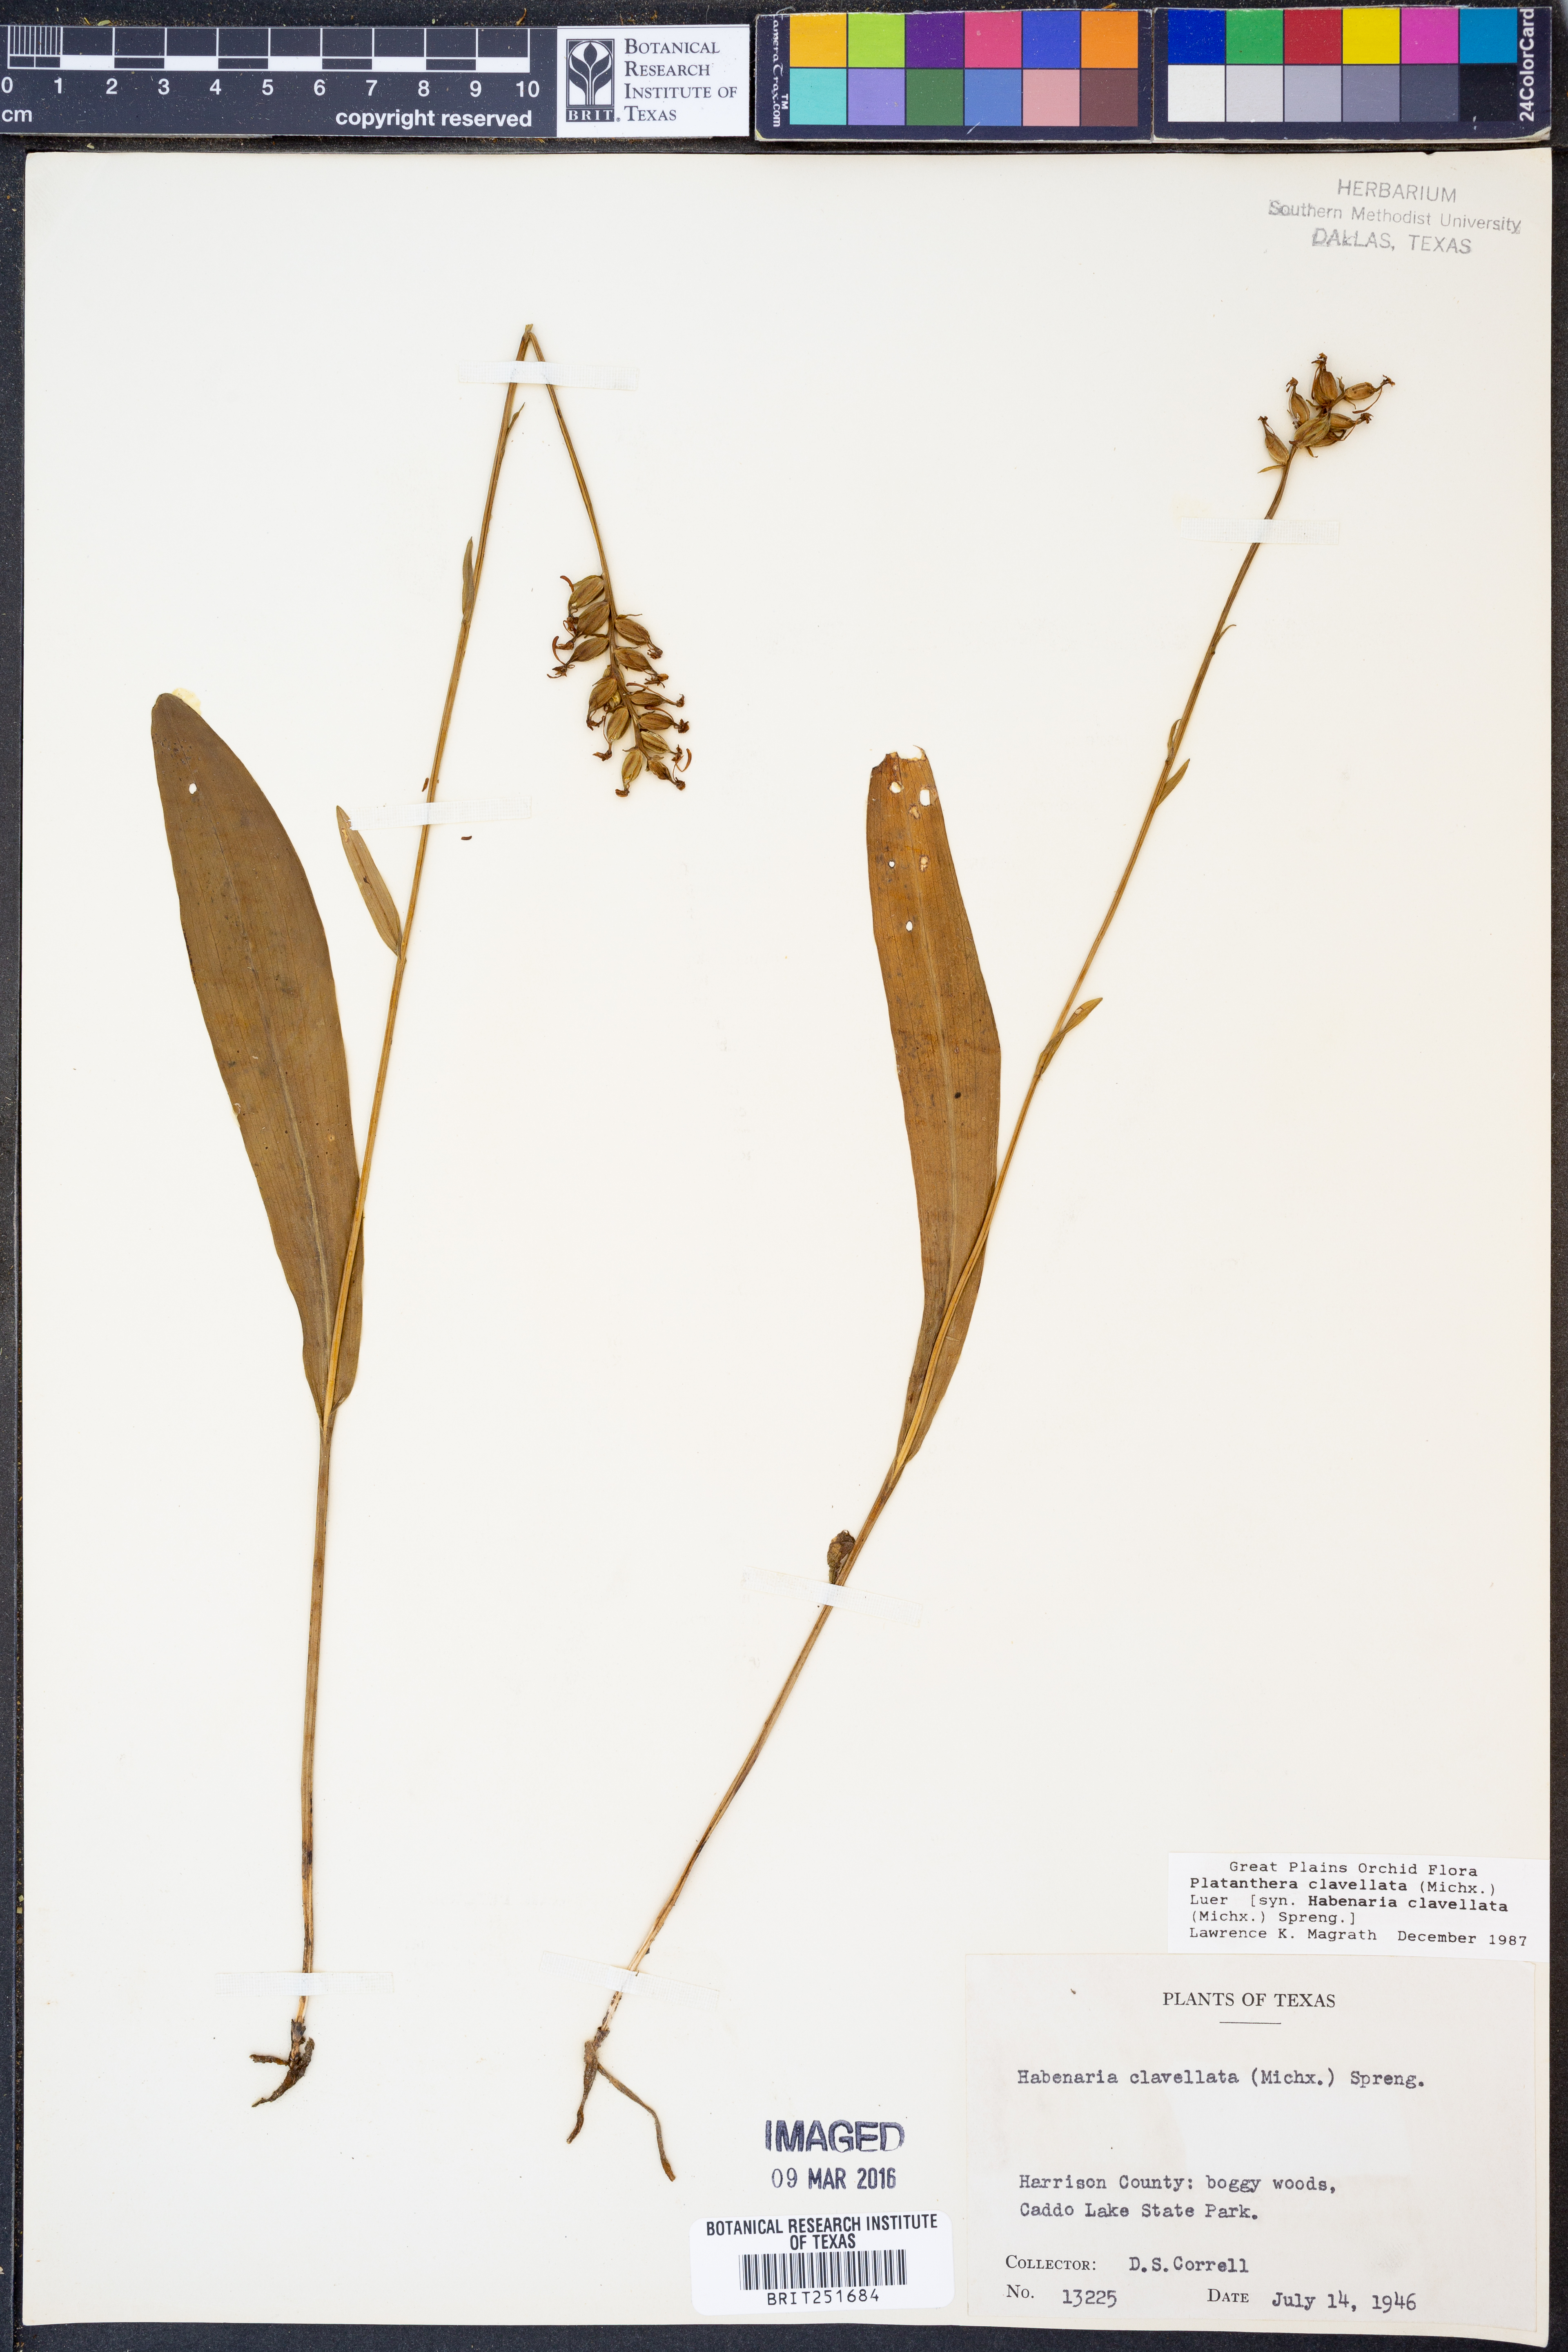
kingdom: Plantae
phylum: Tracheophyta
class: Liliopsida
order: Asparagales
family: Orchidaceae
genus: Platanthera
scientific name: Platanthera clavellata
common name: Club-spur orchid
